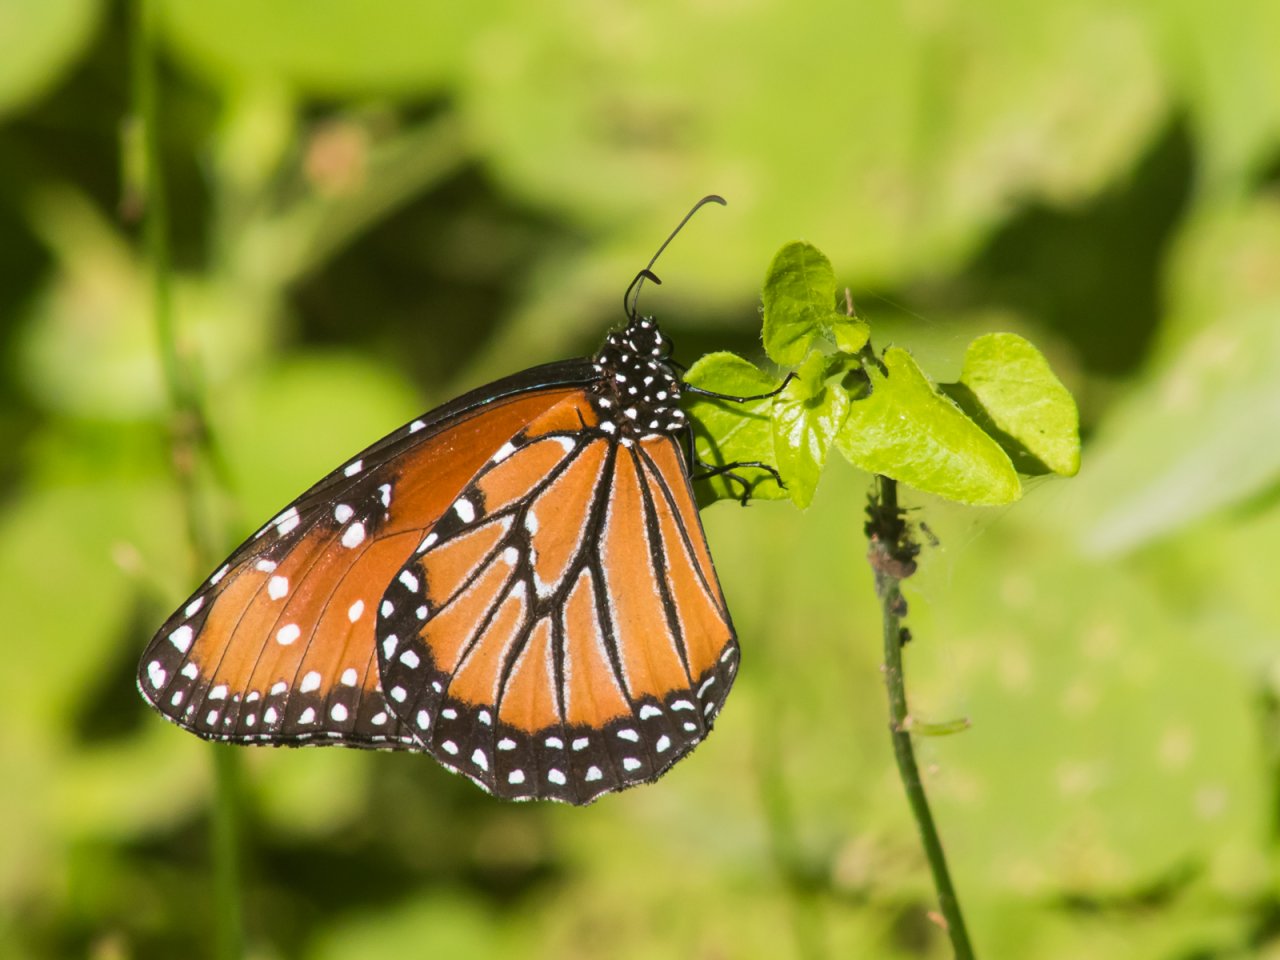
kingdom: Animalia
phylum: Arthropoda
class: Insecta
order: Lepidoptera
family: Nymphalidae
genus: Danaus
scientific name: Danaus gilippus
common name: Queen
